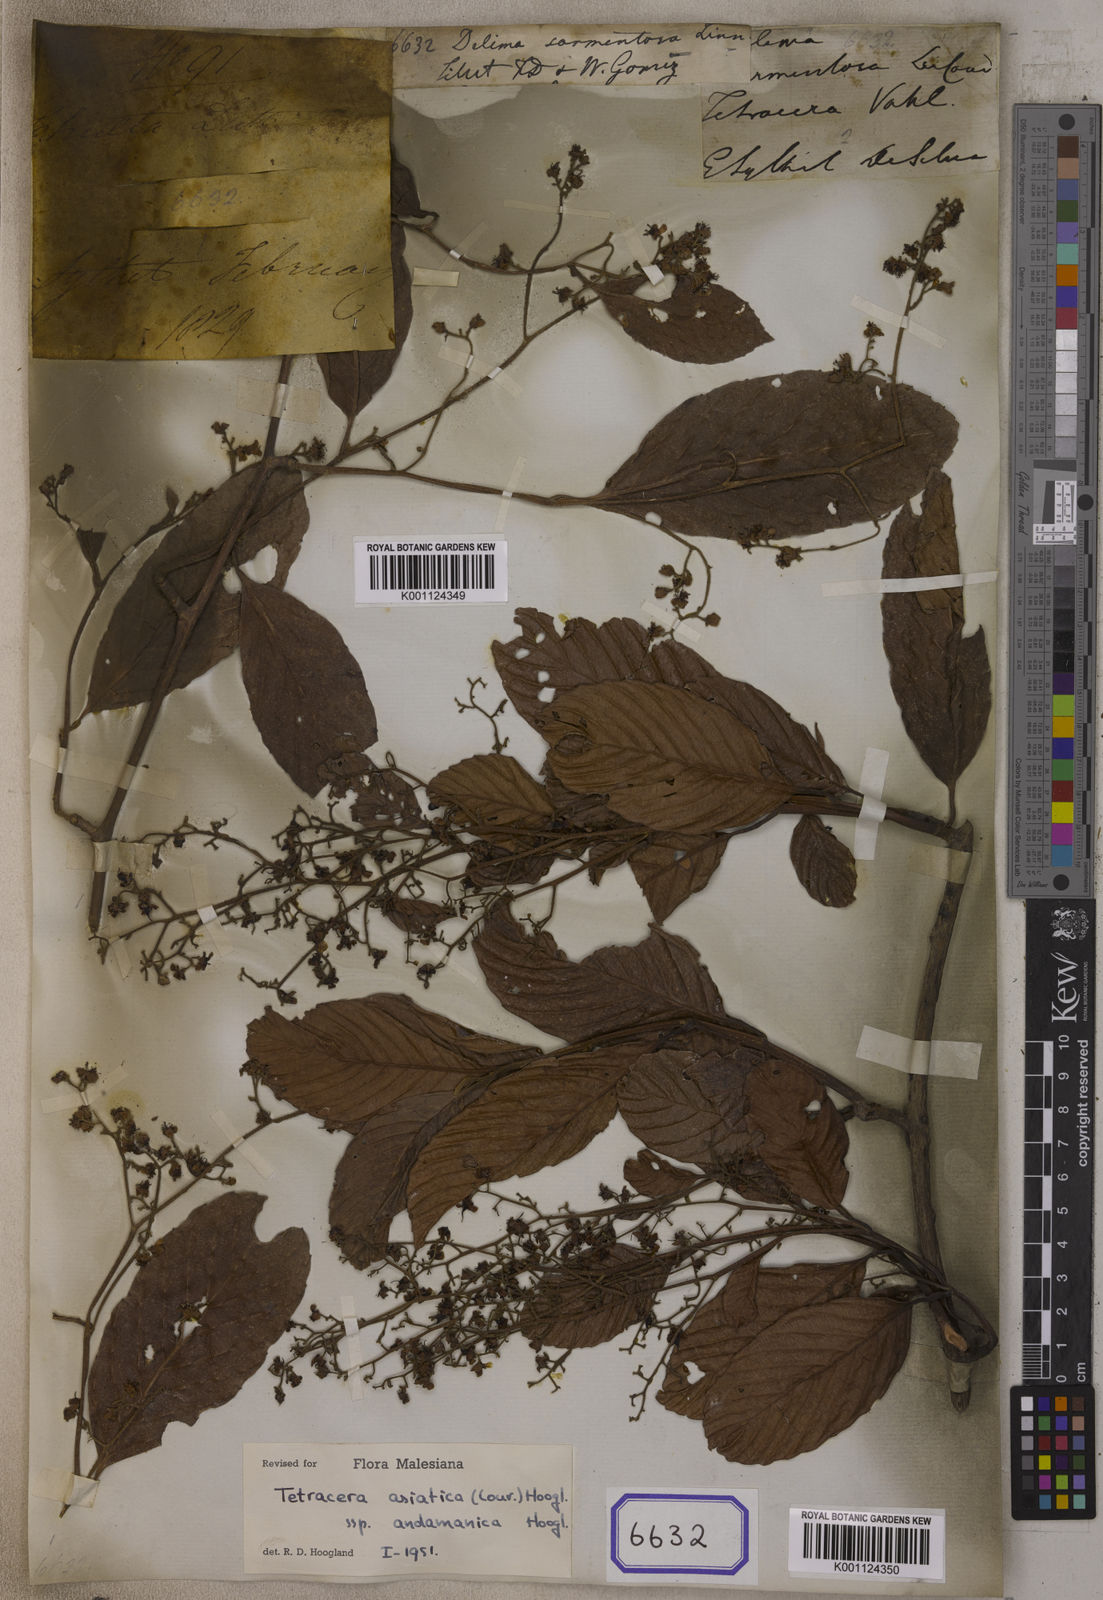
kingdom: Plantae
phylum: Tracheophyta
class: Magnoliopsida
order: Dilleniales
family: Dilleniaceae
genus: Tetracera
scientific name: Tetracera sarmentosa
